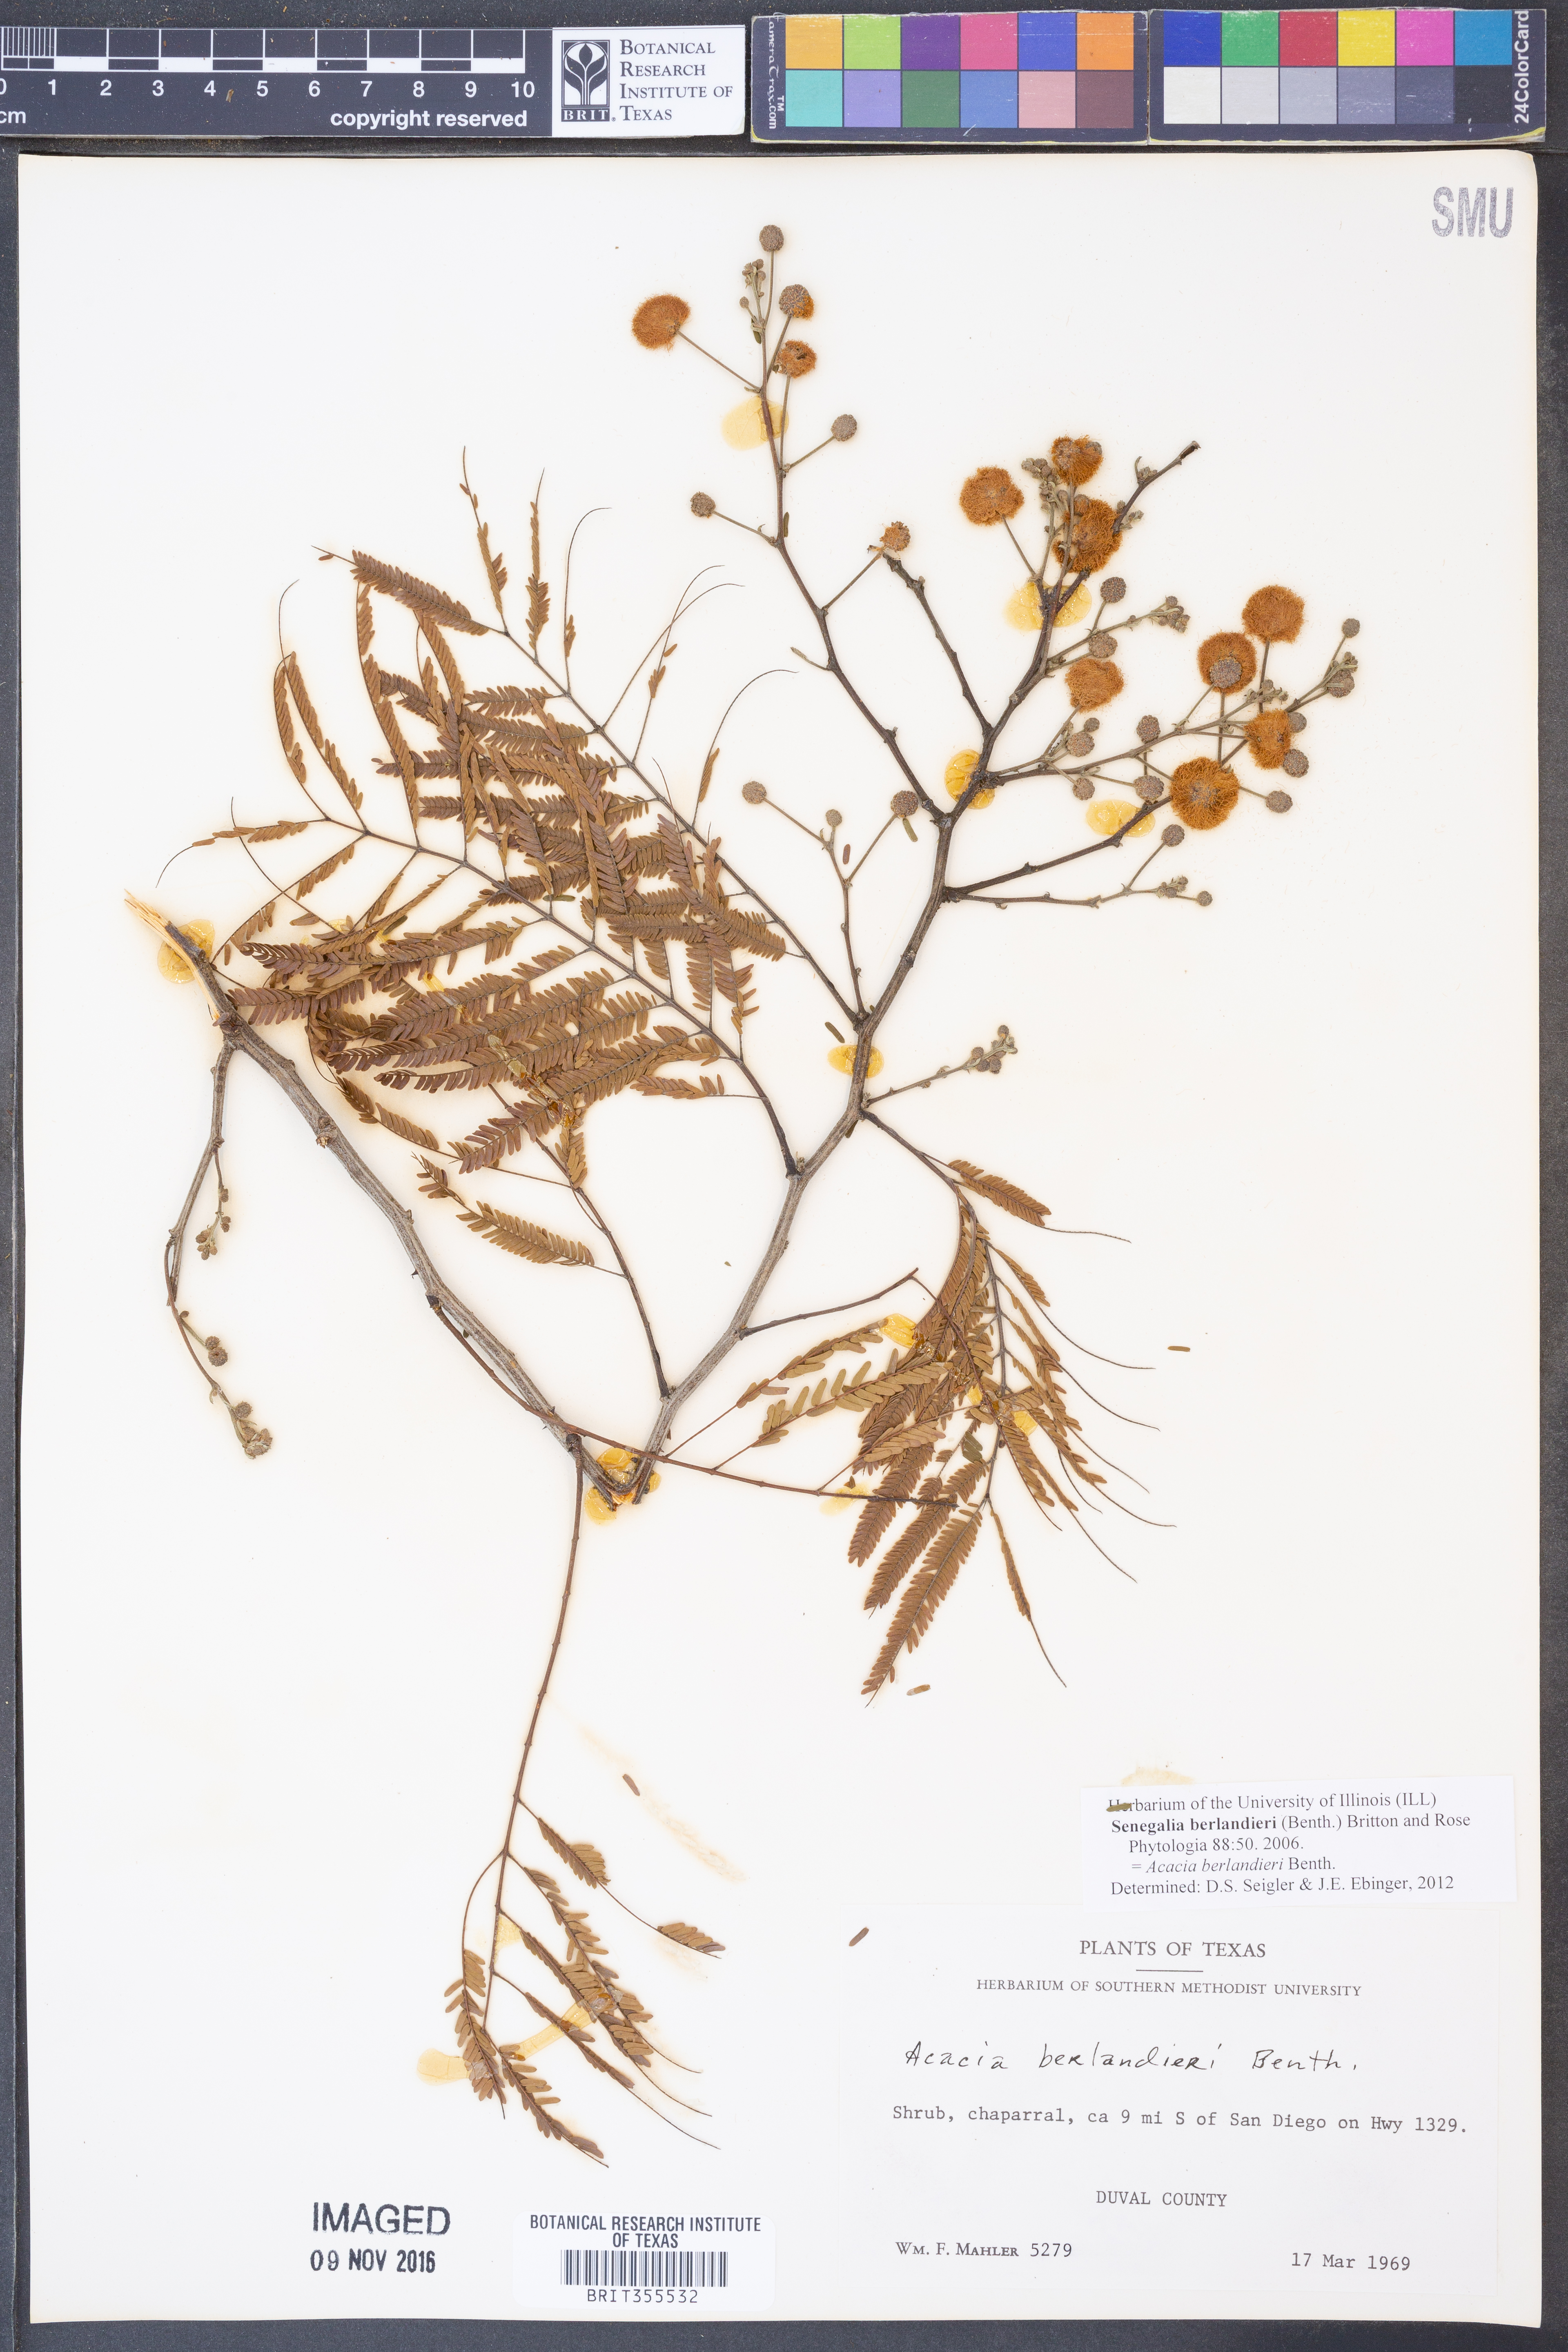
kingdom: Plantae
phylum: Tracheophyta
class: Magnoliopsida
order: Fabales
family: Fabaceae
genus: Senegalia
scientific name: Senegalia berlandieri
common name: Berlandier acacia
